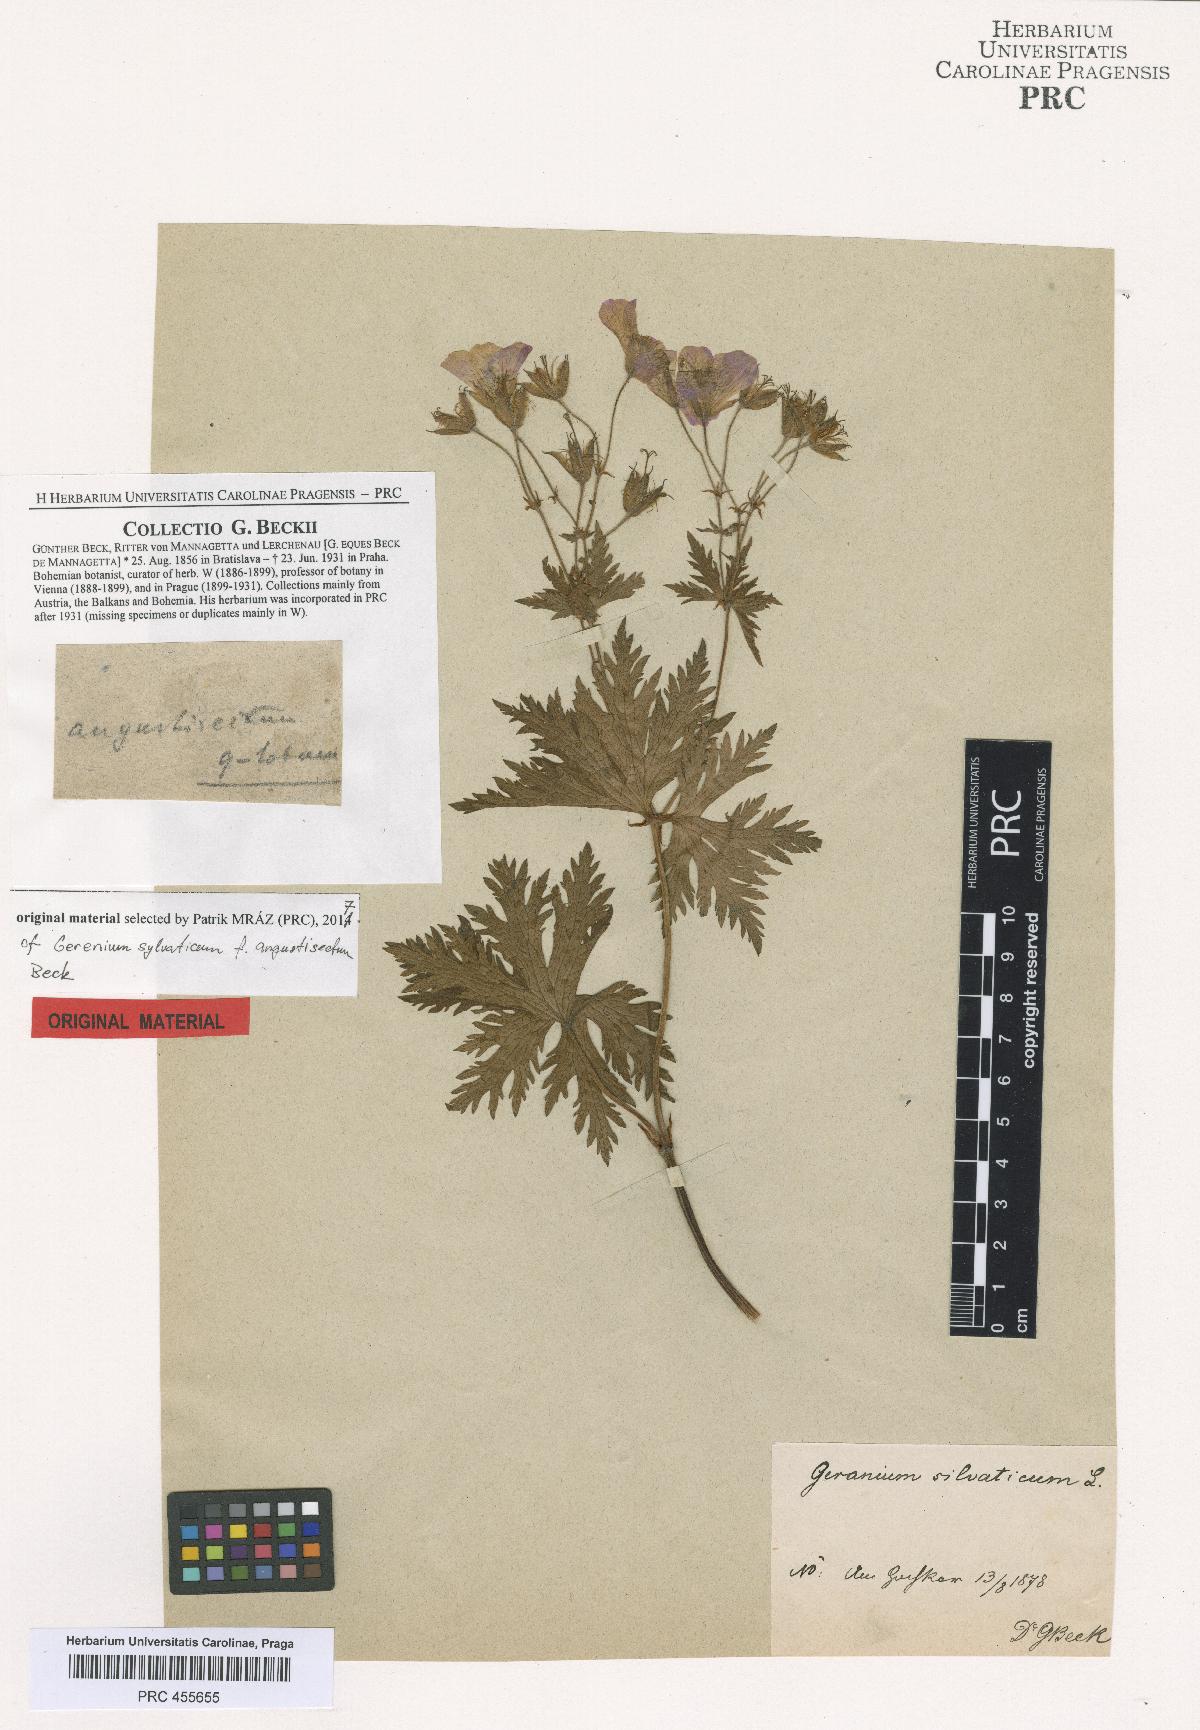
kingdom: Plantae
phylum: Tracheophyta
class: Magnoliopsida
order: Geraniales
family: Geraniaceae
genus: Geranium
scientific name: Geranium sylvaticum
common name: Wood crane's-bill
